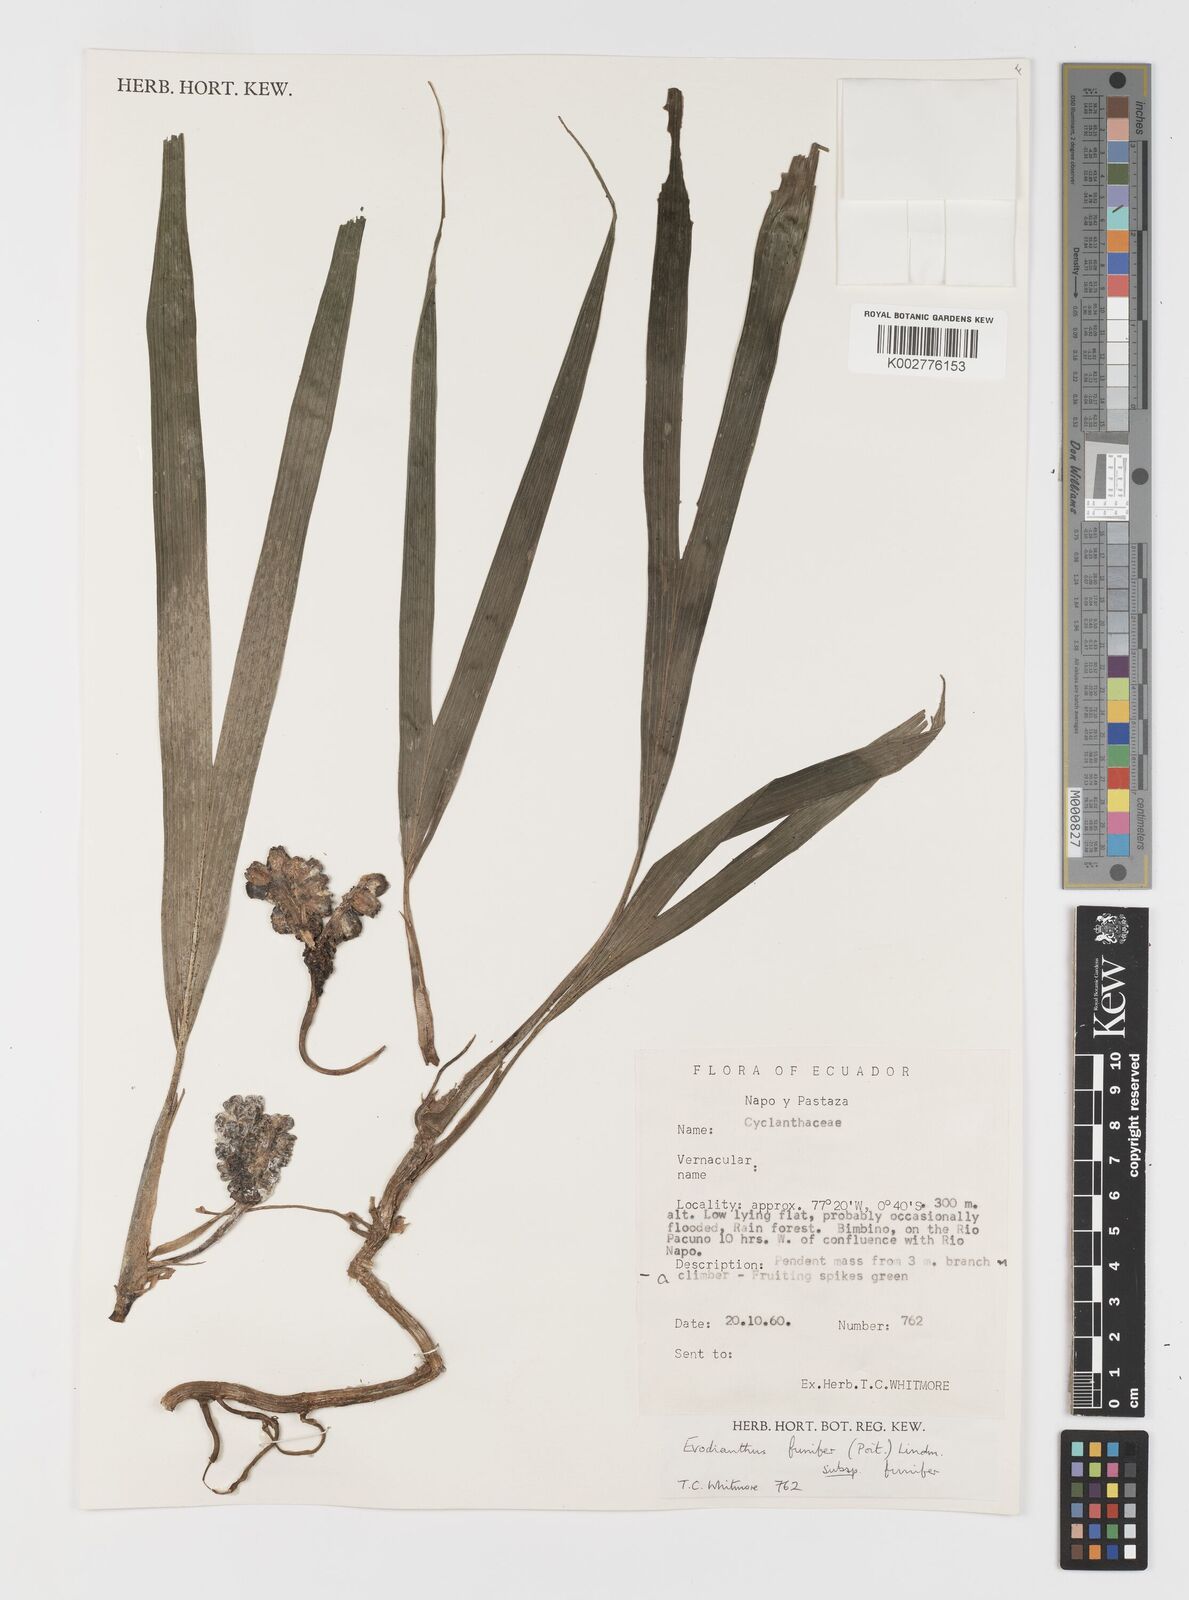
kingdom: Plantae
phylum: Tracheophyta
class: Liliopsida
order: Pandanales
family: Cyclanthaceae
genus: Evodianthus
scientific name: Evodianthus funifer
